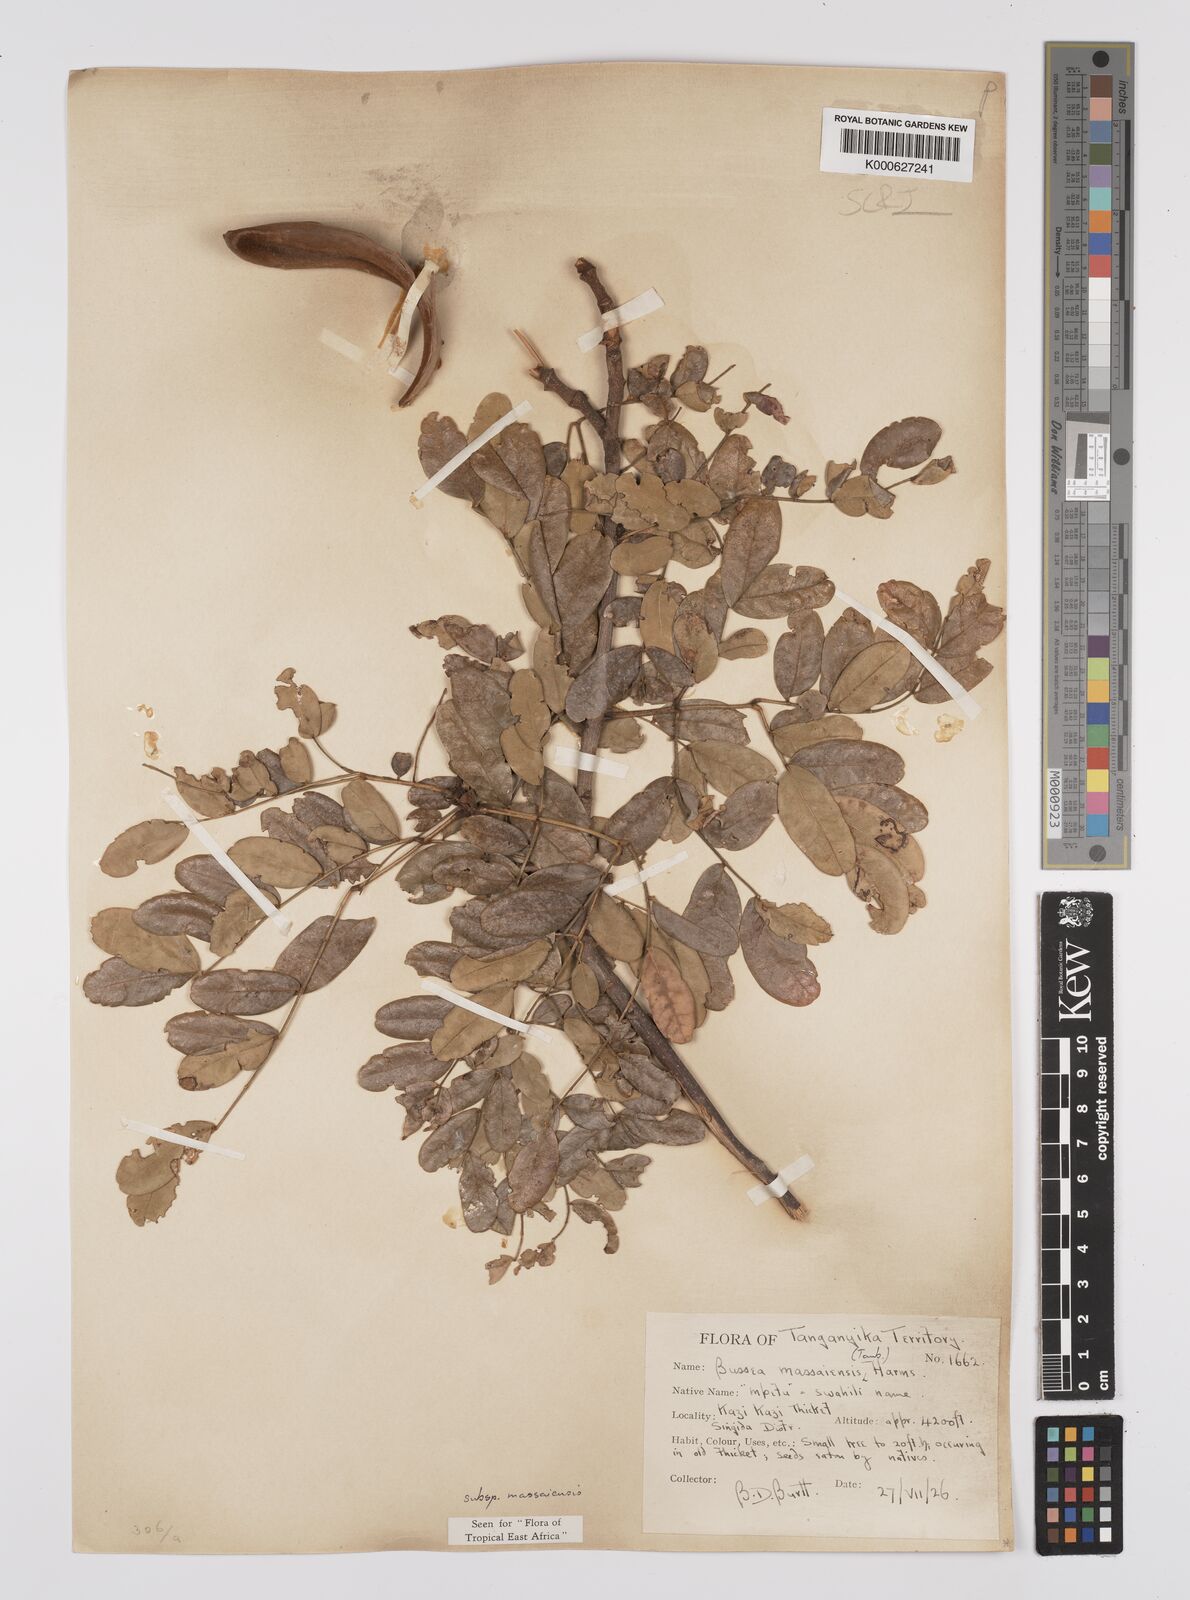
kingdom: Plantae
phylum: Tracheophyta
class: Magnoliopsida
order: Fabales
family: Fabaceae
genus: Bussea
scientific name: Bussea
